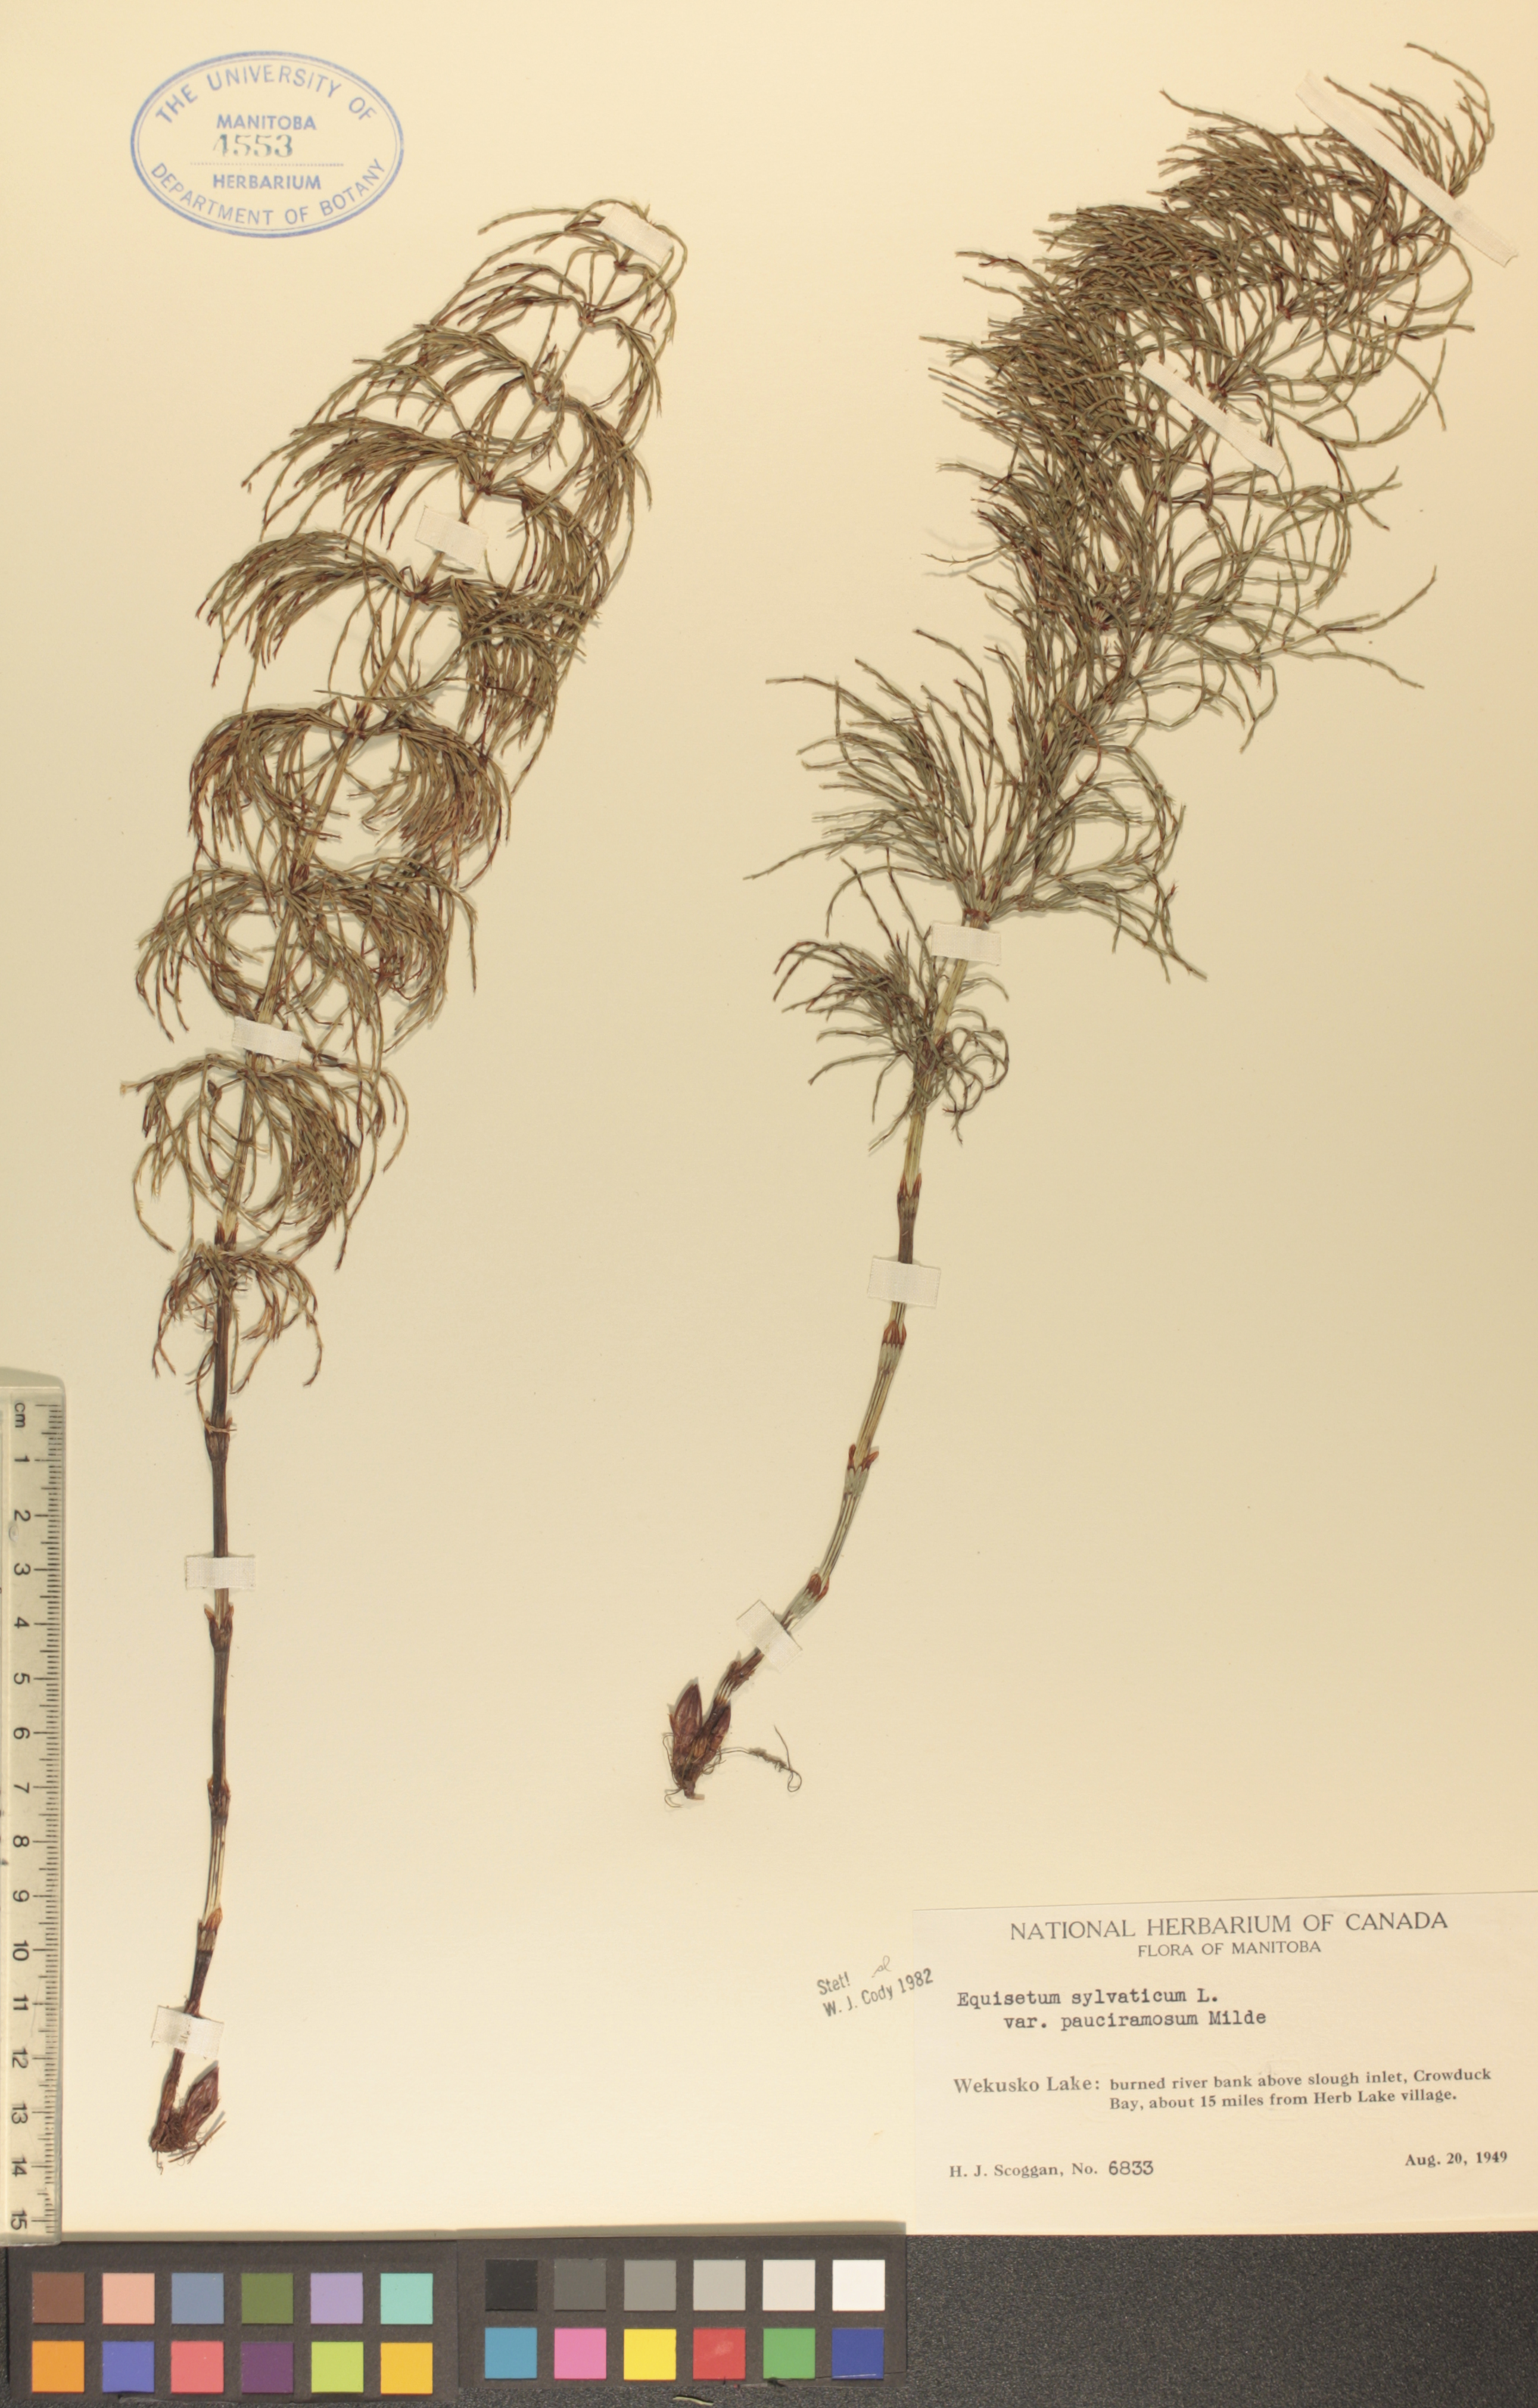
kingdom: Plantae
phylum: Tracheophyta
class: Polypodiopsida
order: Equisetales
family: Equisetaceae
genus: Equisetum
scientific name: Equisetum sylvaticum
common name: Wood horsetail
